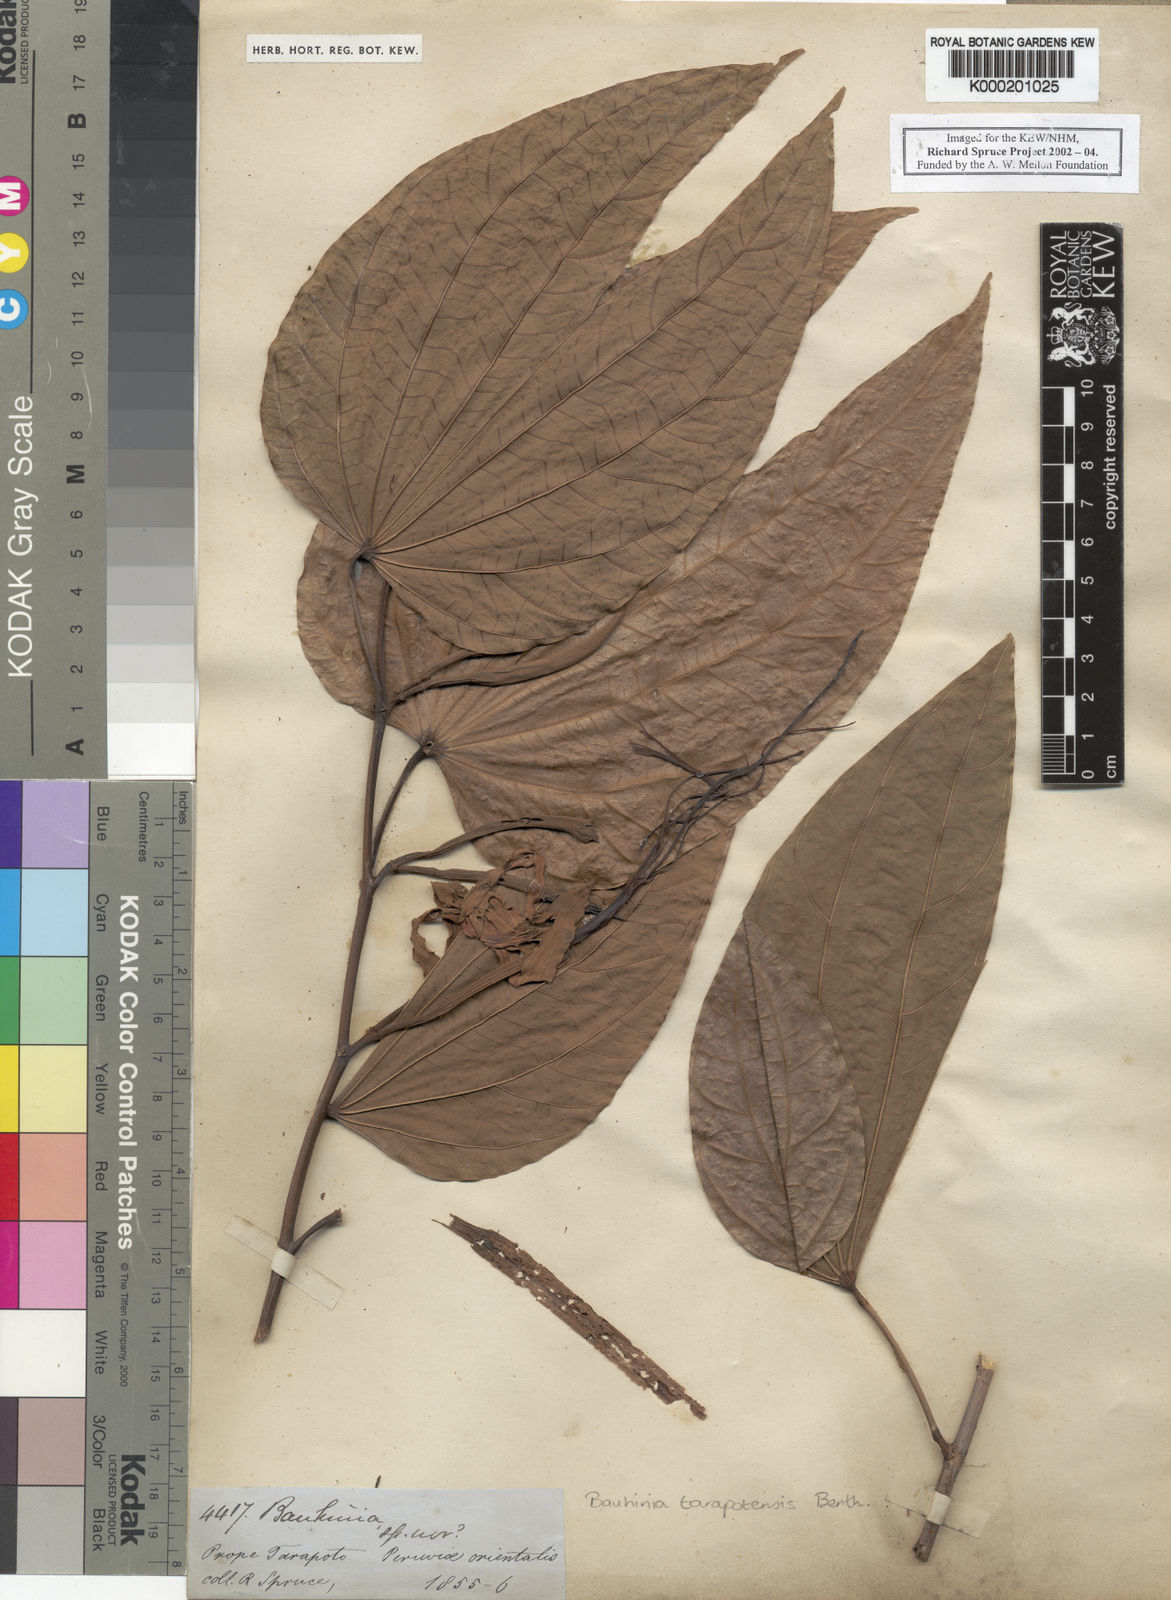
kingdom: Plantae
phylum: Tracheophyta
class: Magnoliopsida
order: Fabales
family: Fabaceae
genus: Bauhinia
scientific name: Bauhinia tarapotensis
